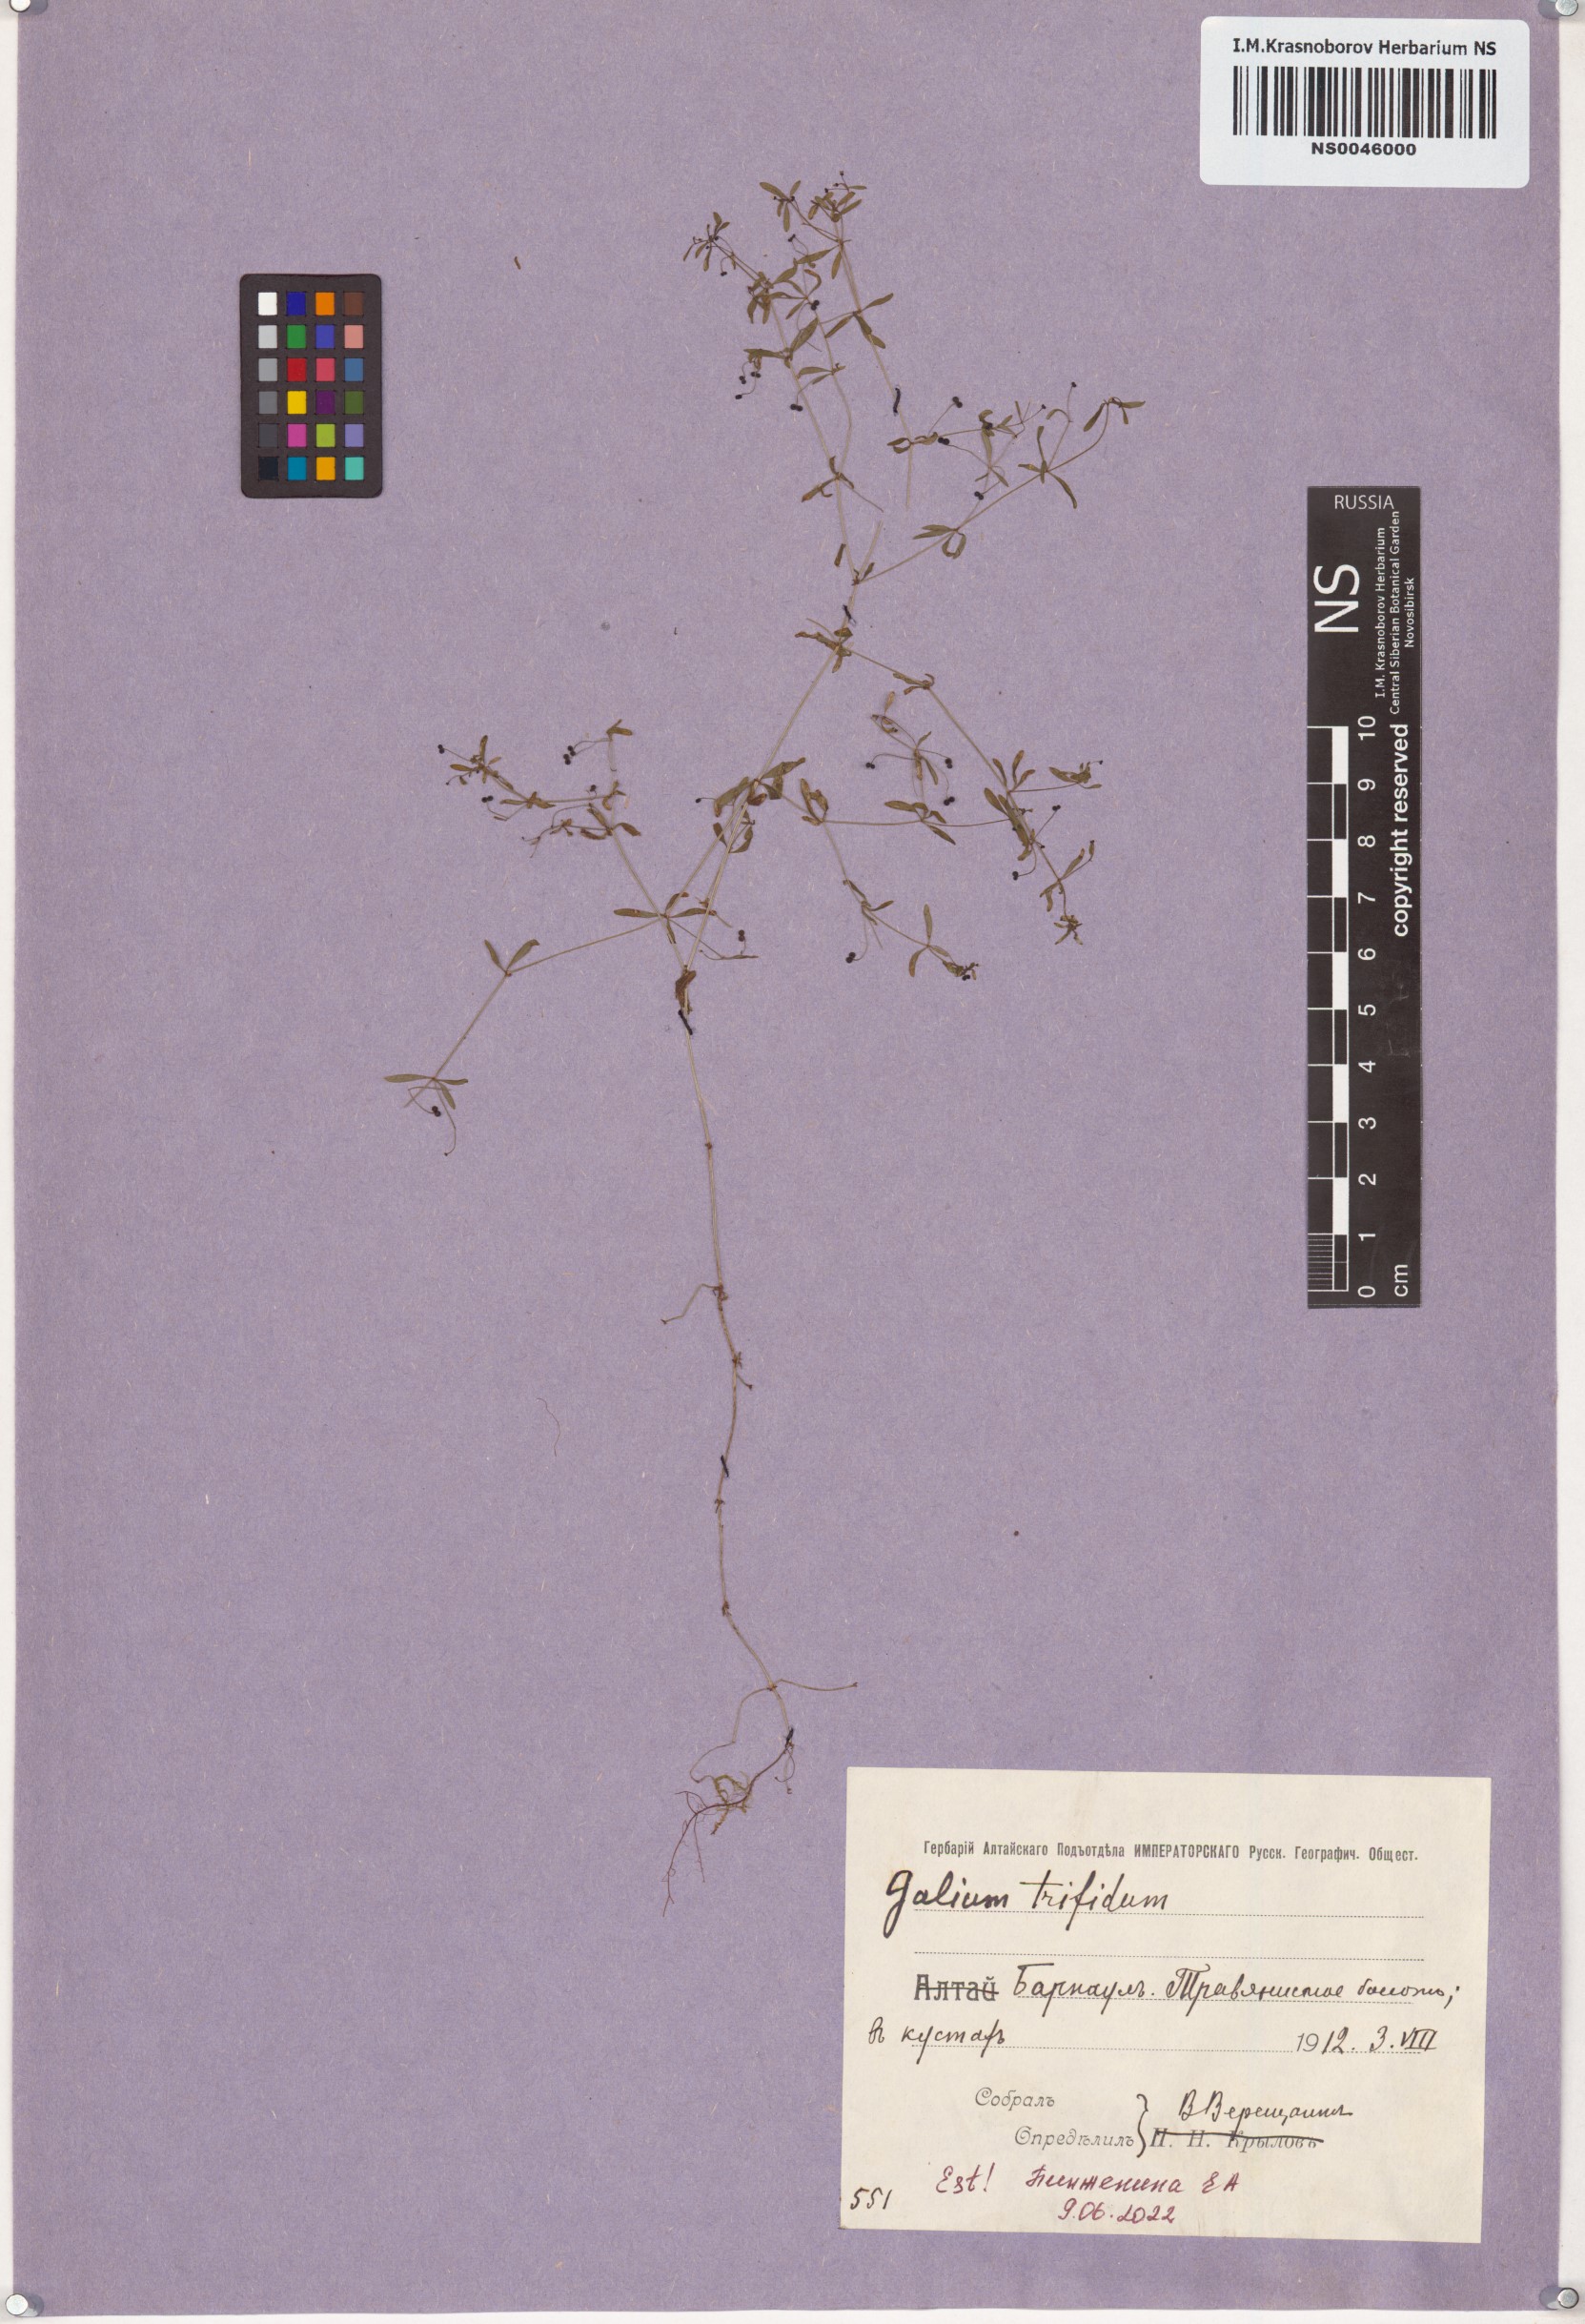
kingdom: Plantae
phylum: Tracheophyta
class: Magnoliopsida
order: Gentianales
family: Rubiaceae
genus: Galium
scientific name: Galium trifidum
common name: Small bedstraw
